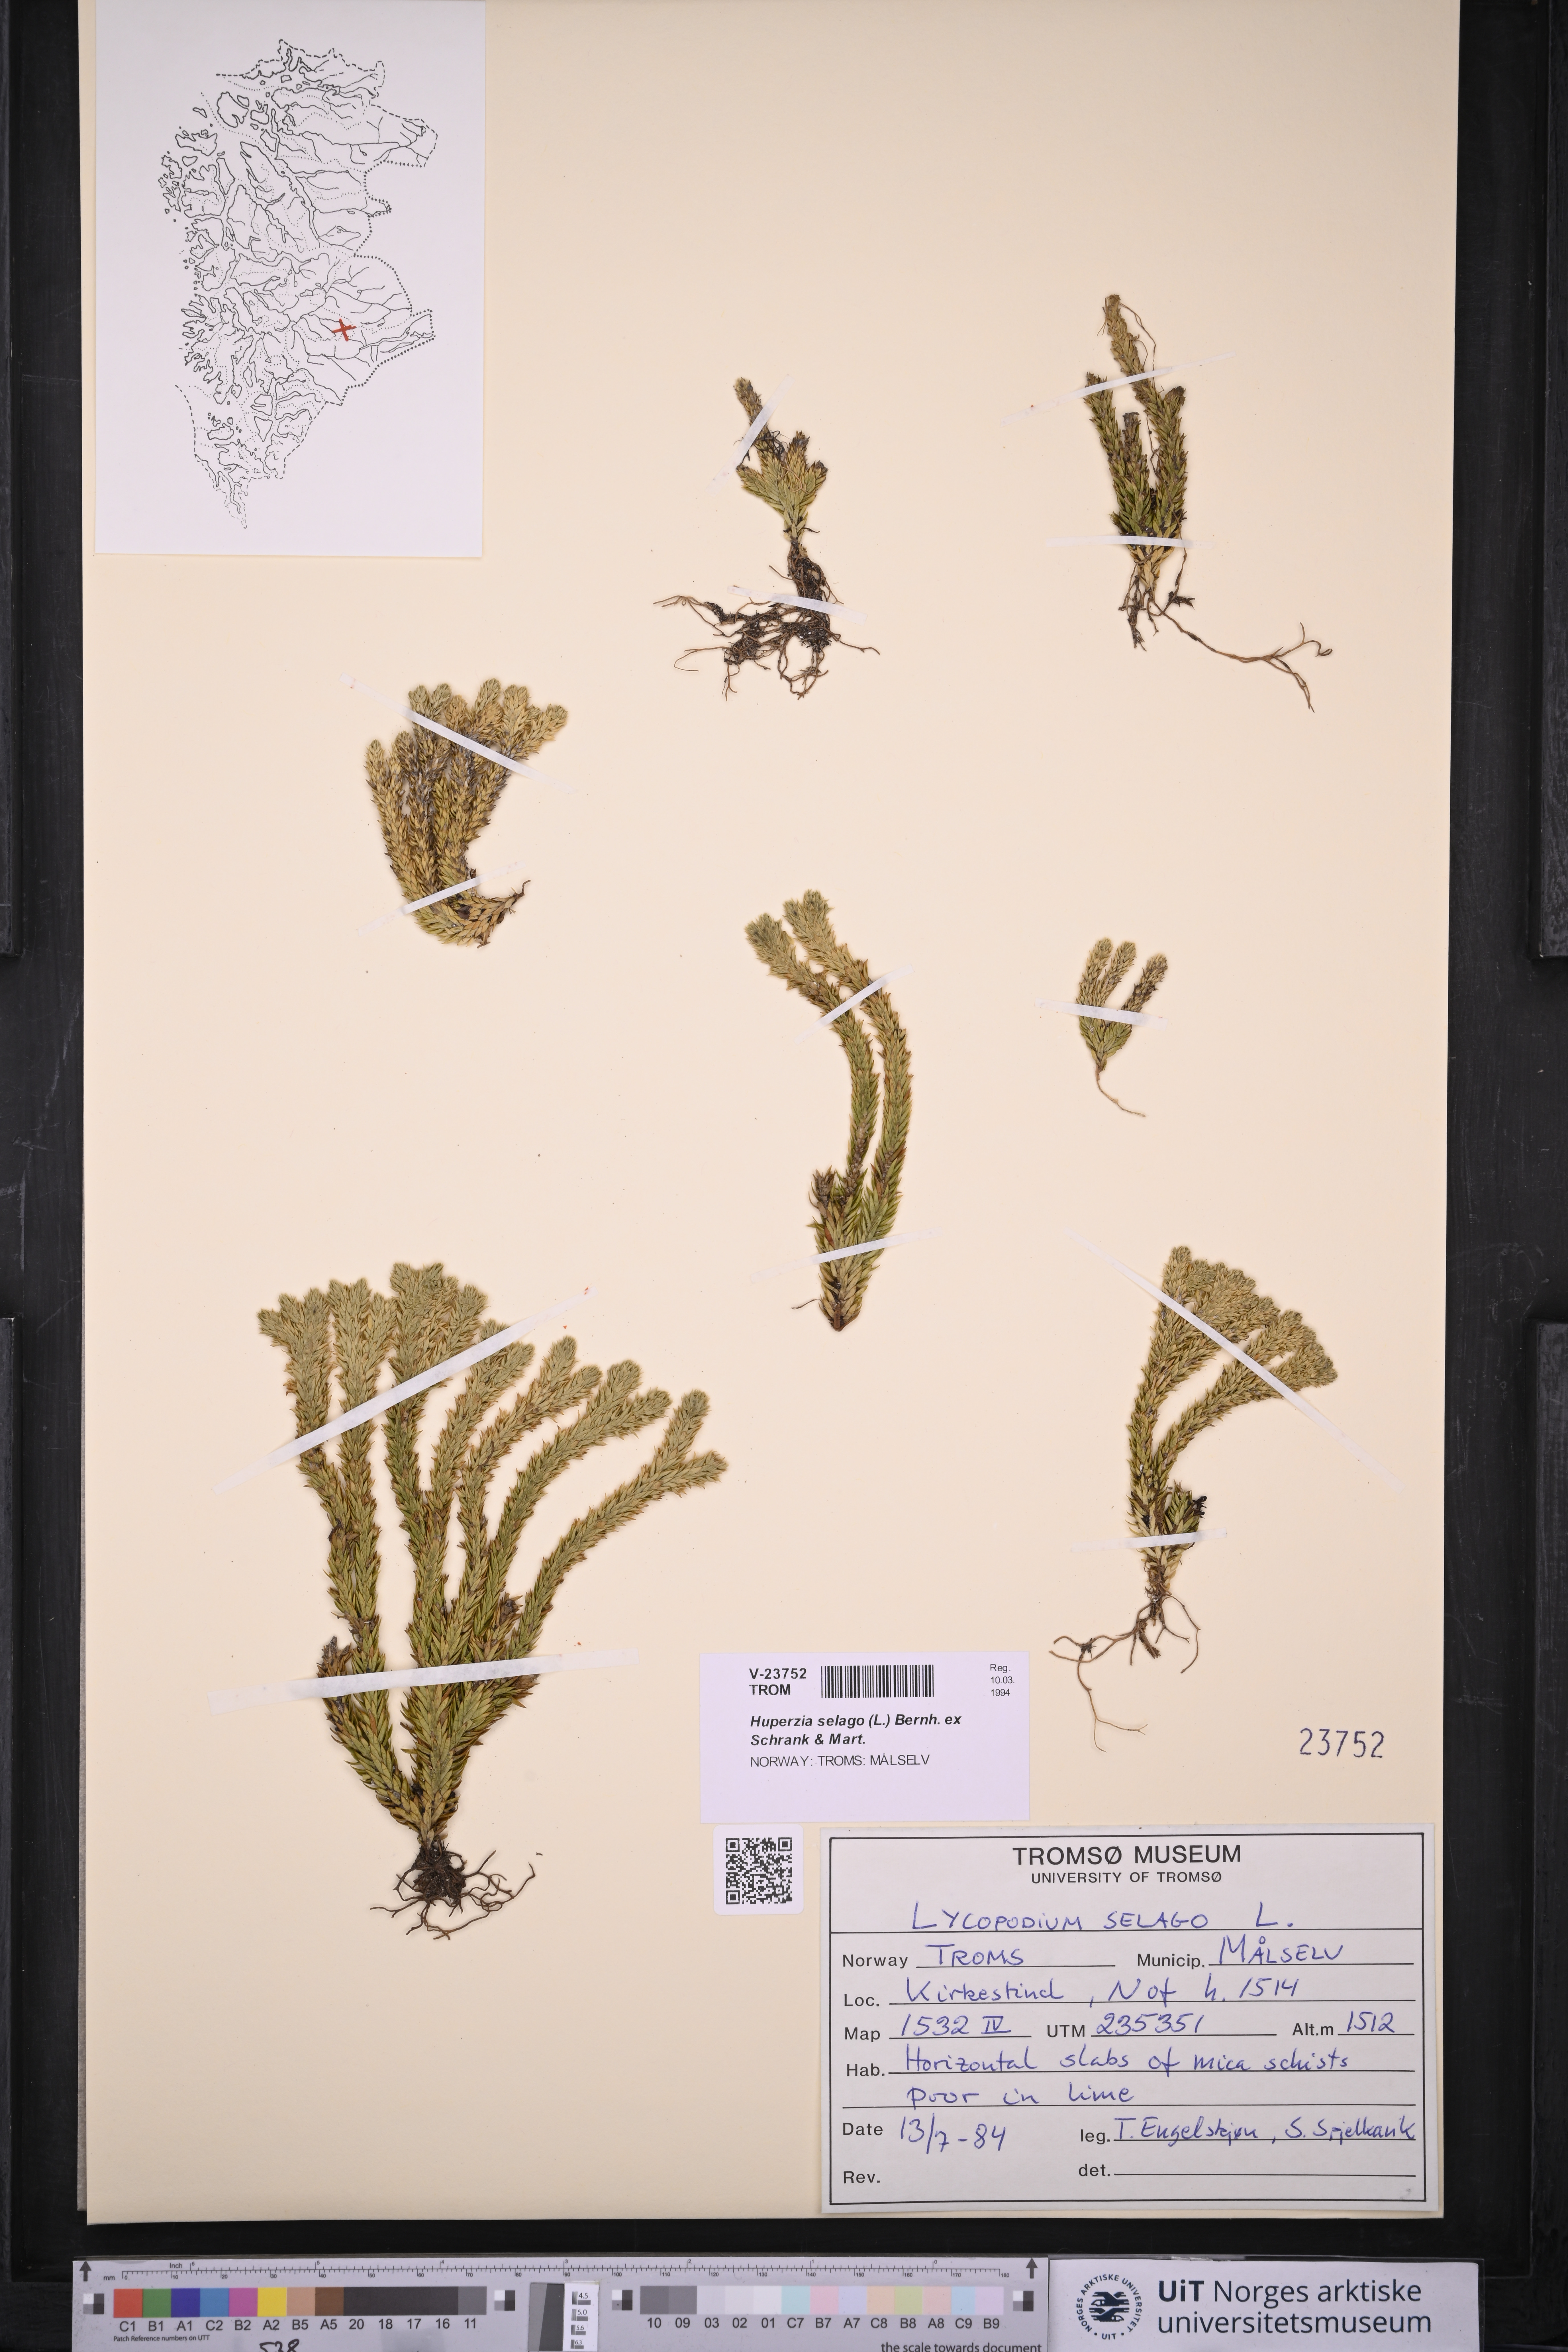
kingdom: Plantae
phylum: Tracheophyta
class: Lycopodiopsida
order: Lycopodiales
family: Lycopodiaceae
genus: Huperzia
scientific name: Huperzia selago
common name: Northern firmoss
